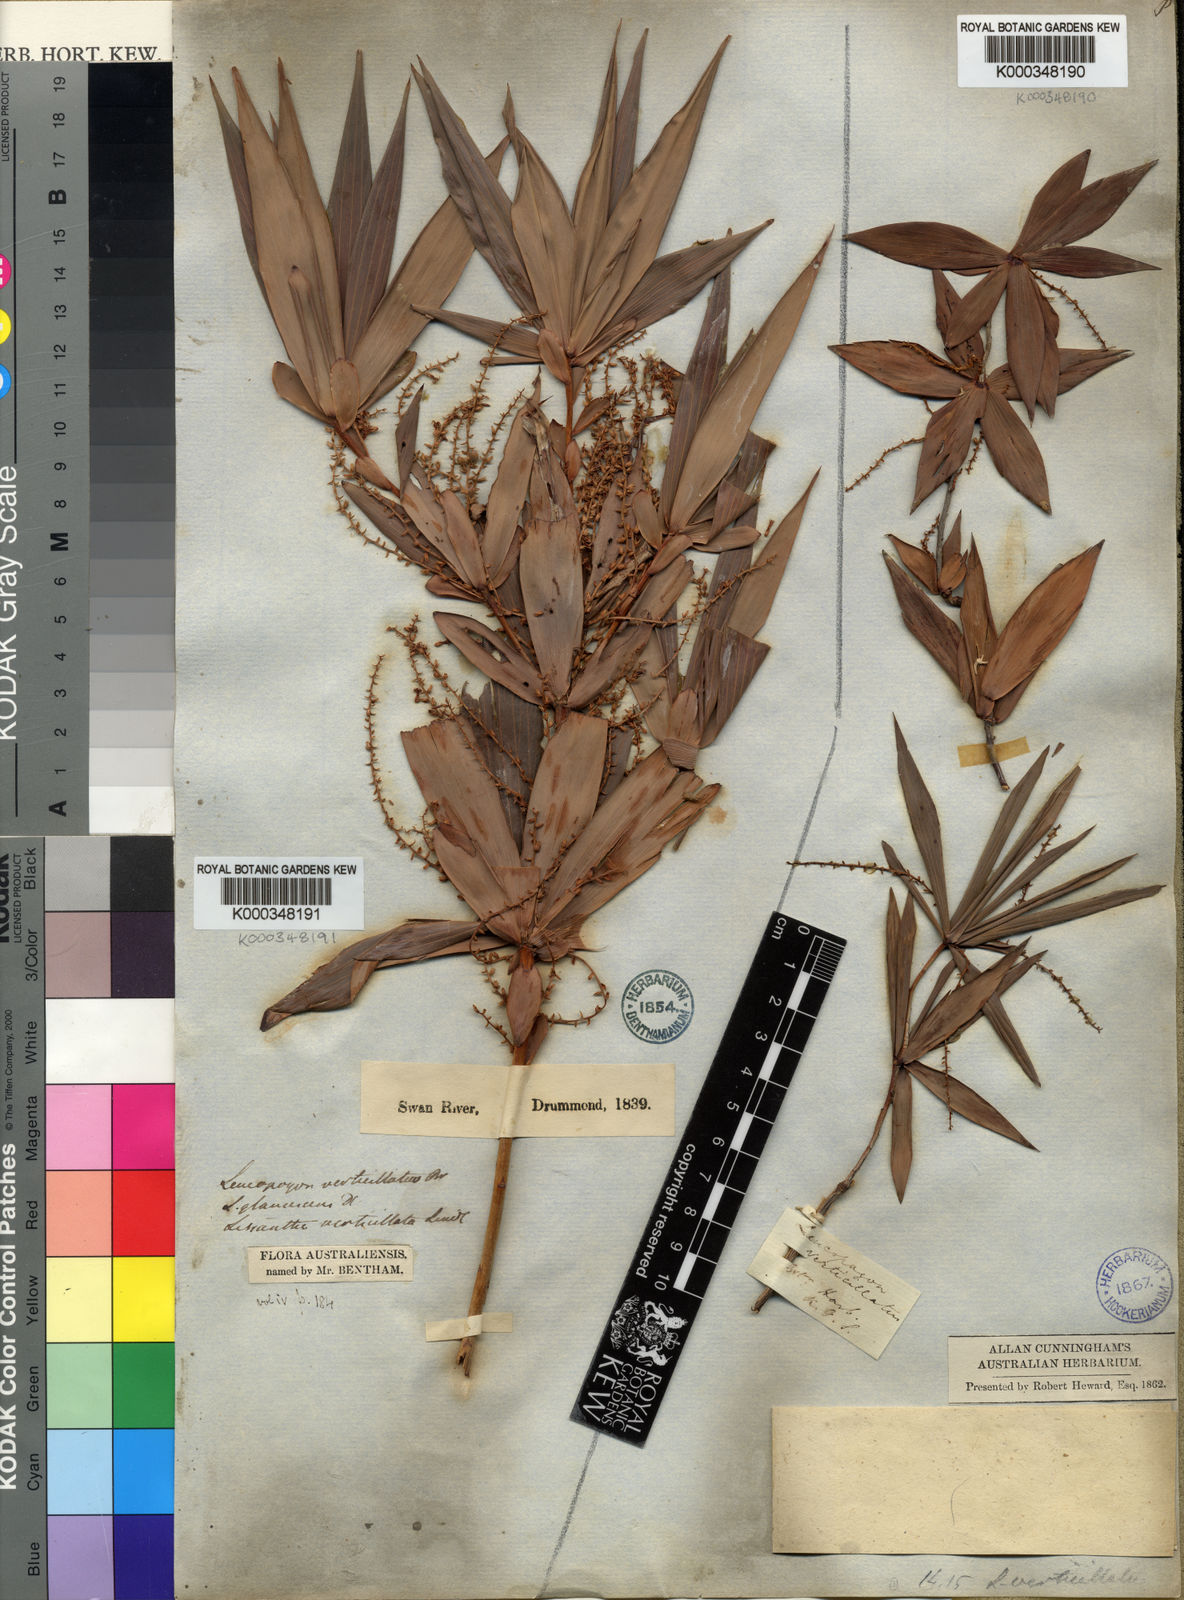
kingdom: Plantae
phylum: Tracheophyta
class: Magnoliopsida
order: Ericales
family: Ericaceae
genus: Leucopogon
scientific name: Leucopogon verticillatus
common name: Tasselshrub
